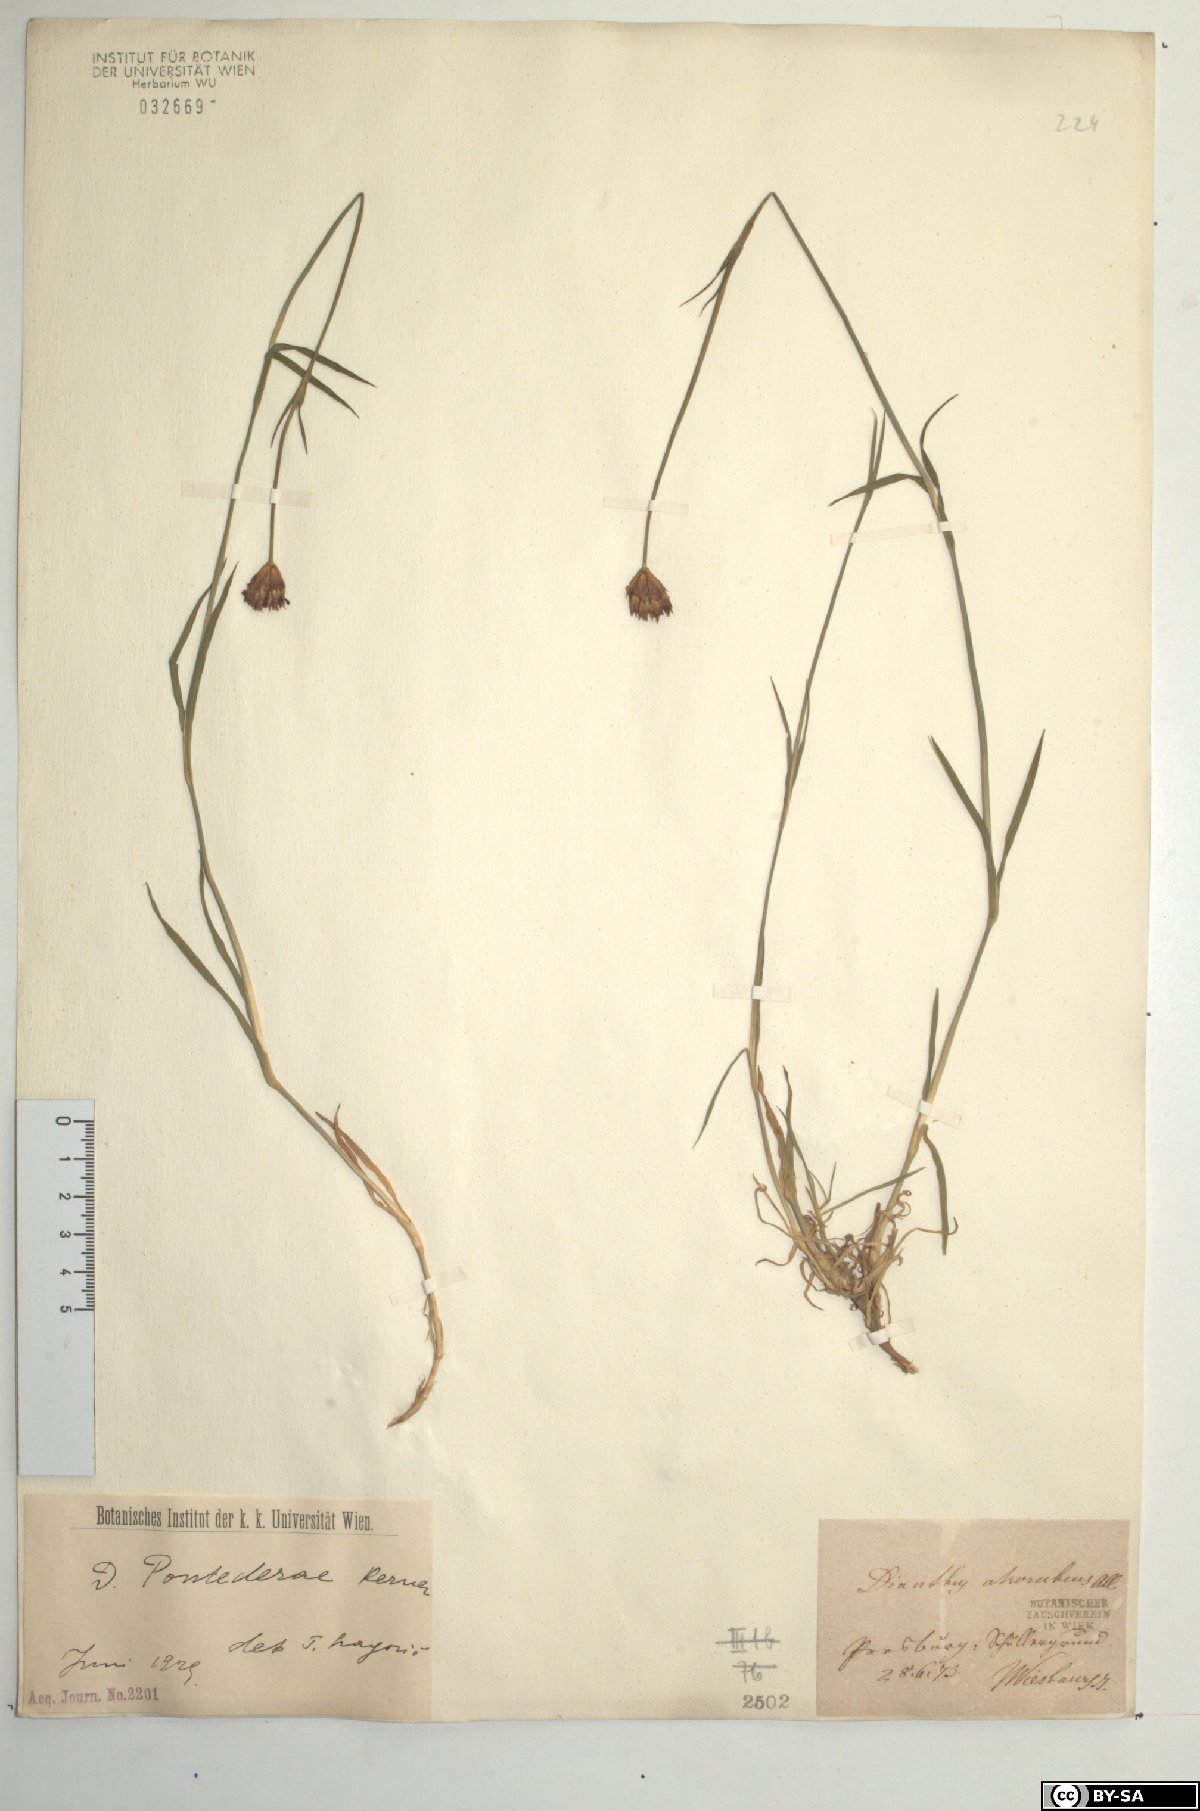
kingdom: Plantae
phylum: Tracheophyta
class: Magnoliopsida
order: Caryophyllales
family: Caryophyllaceae
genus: Dianthus
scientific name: Dianthus pontederae
